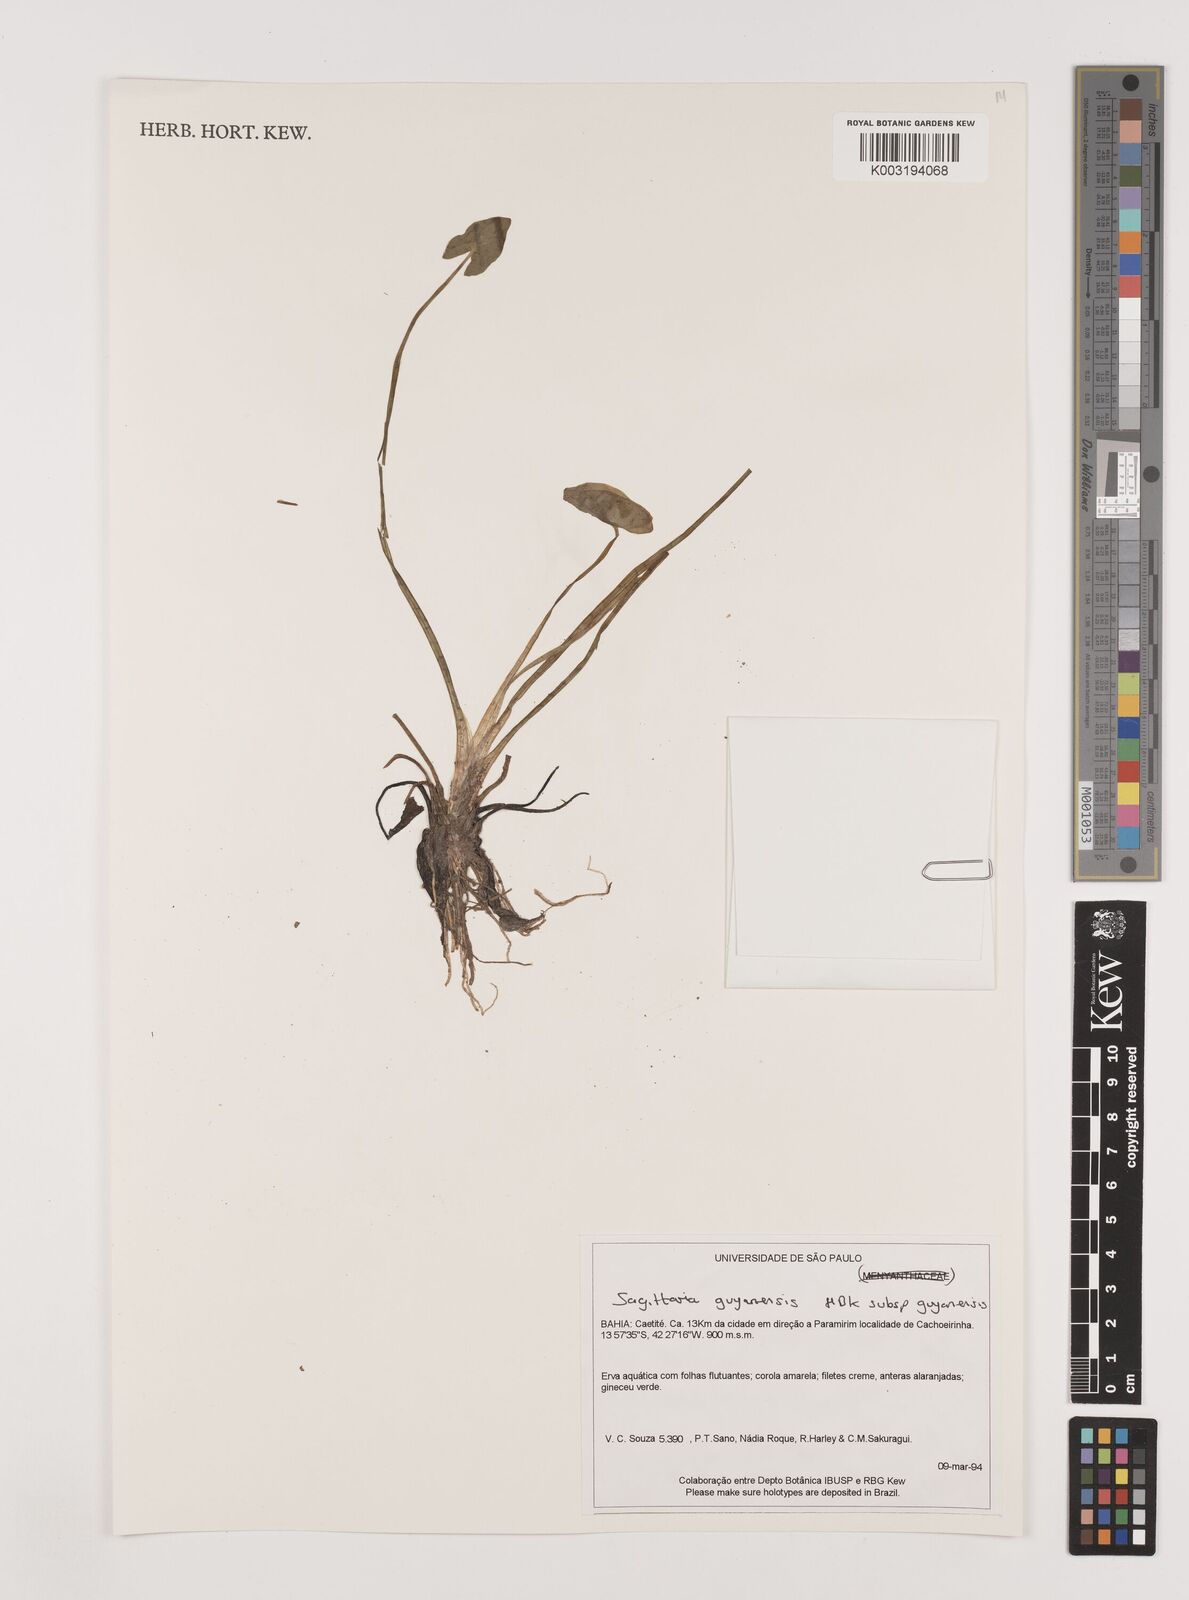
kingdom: Plantae
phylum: Tracheophyta
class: Liliopsida
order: Alismatales
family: Alismataceae
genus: Sagittaria
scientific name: Sagittaria guayanensis
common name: Guyanese arrowhead
